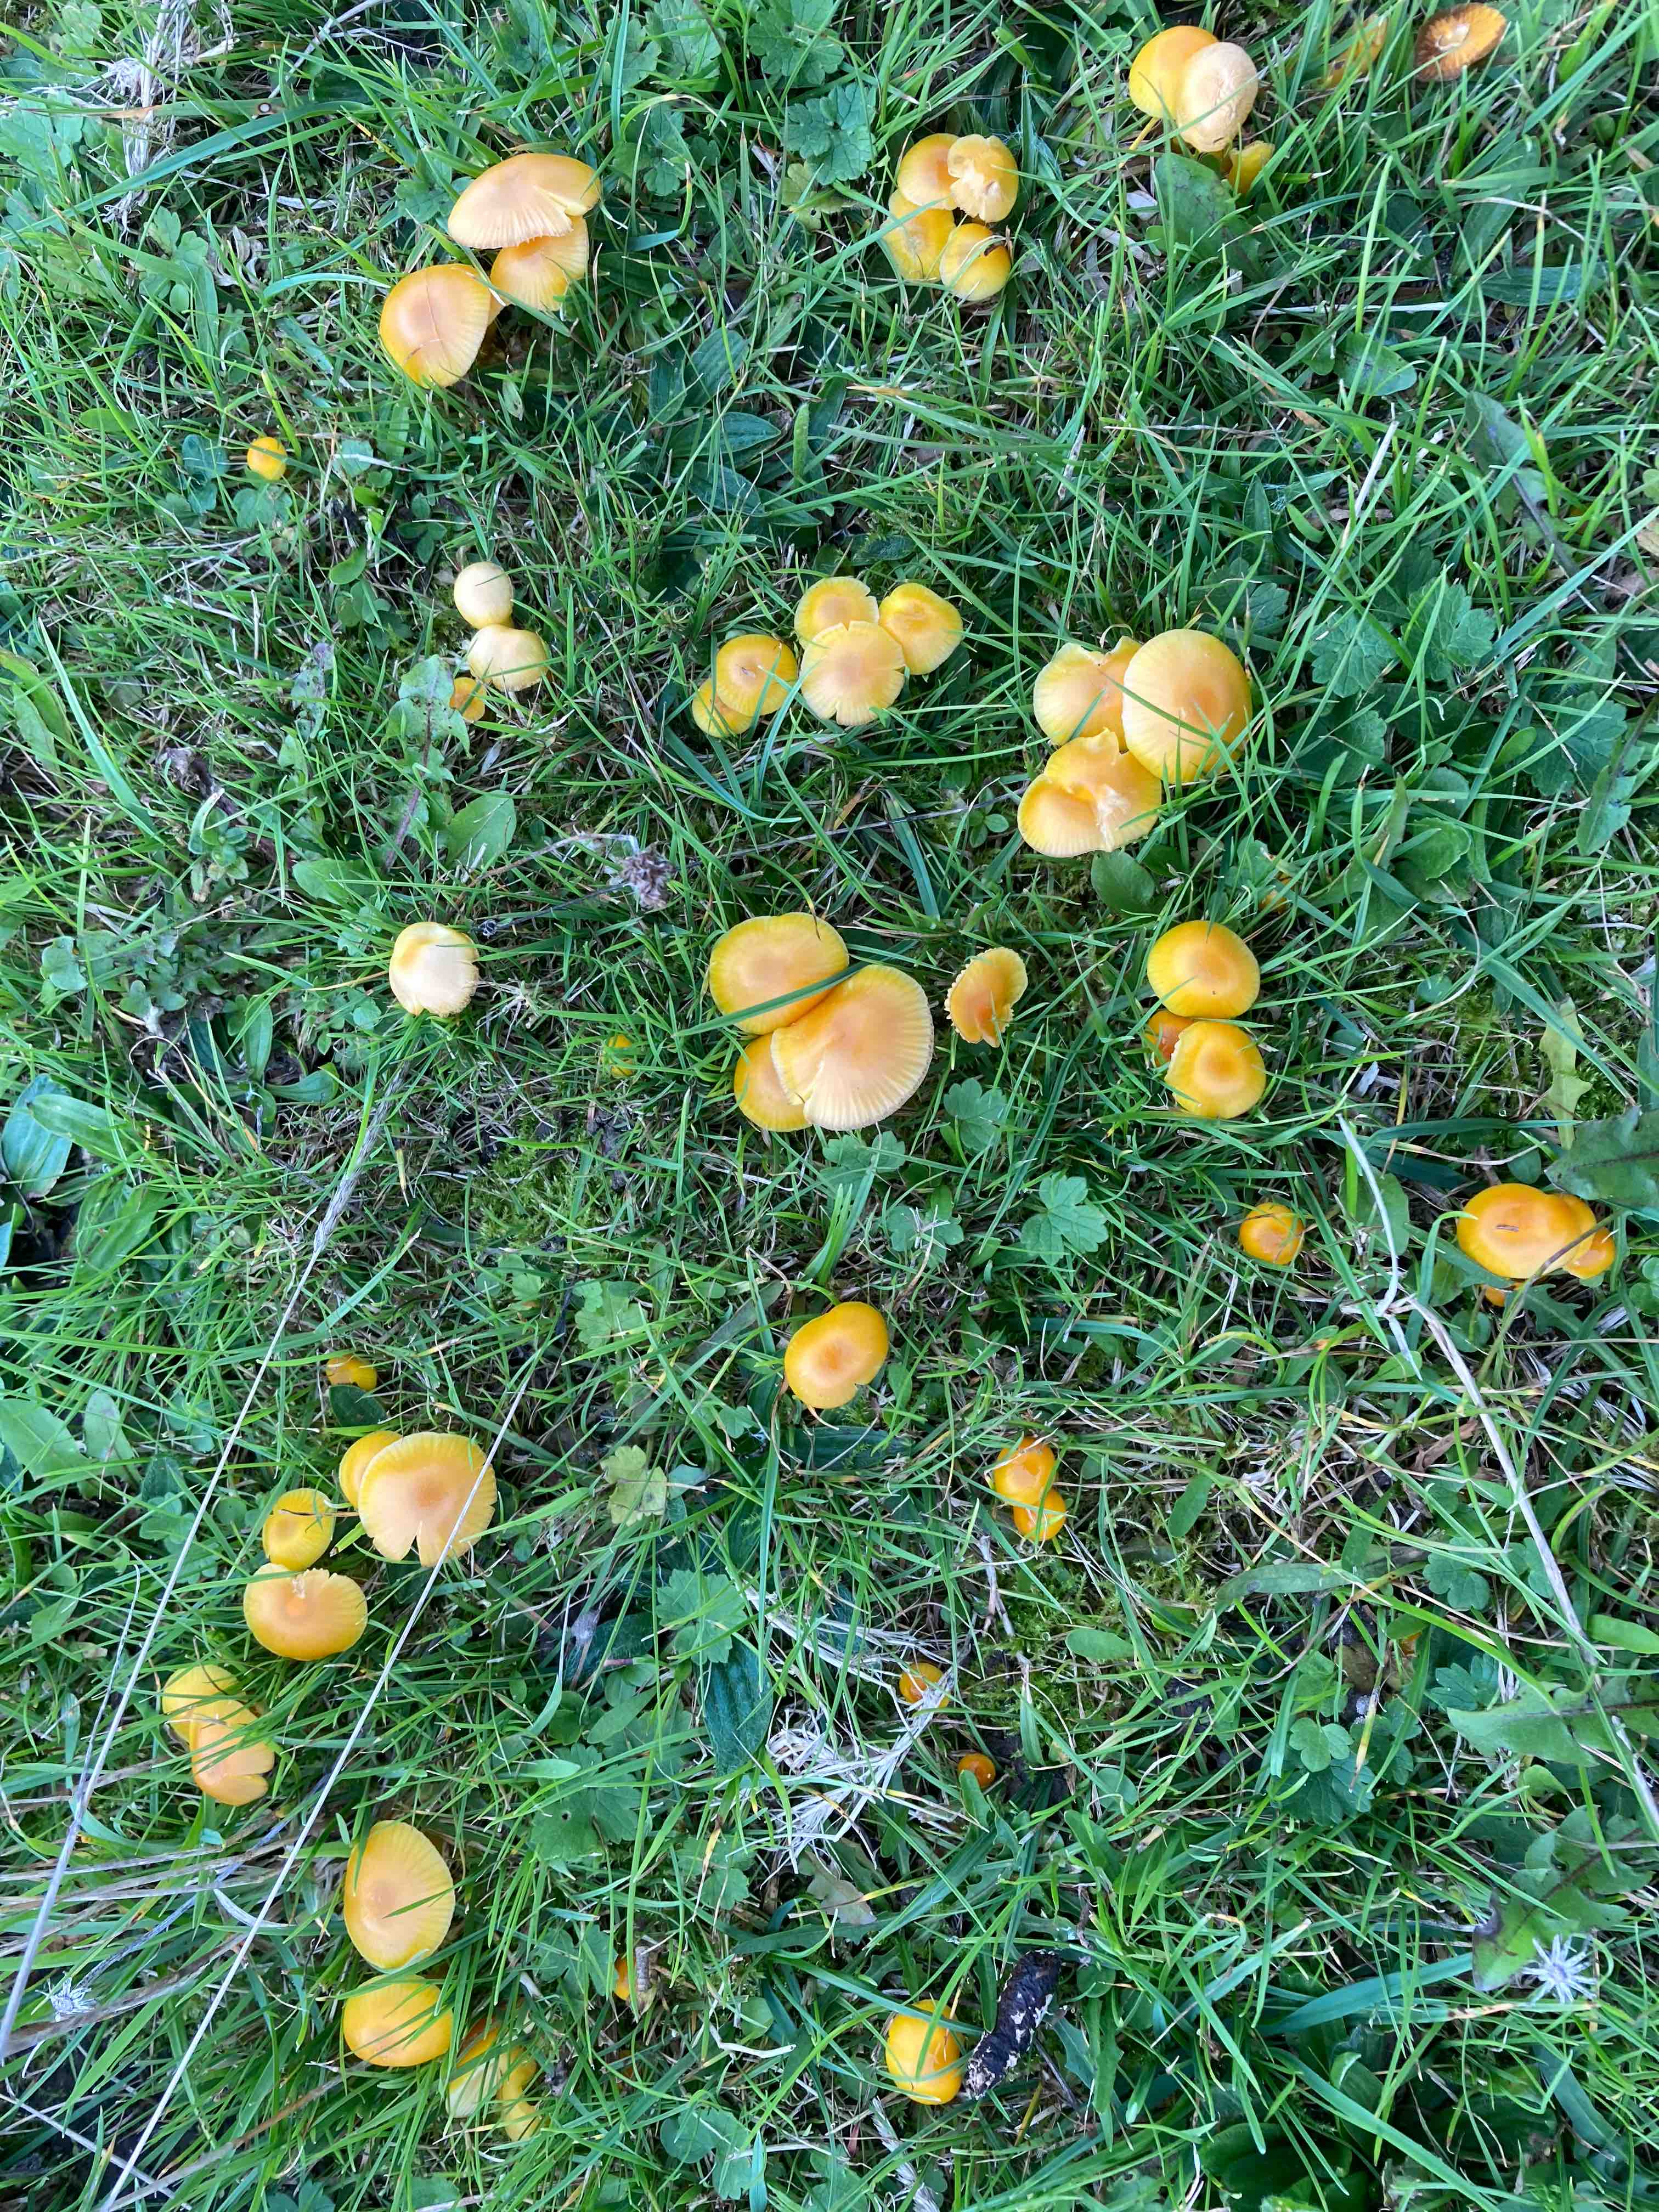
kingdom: Fungi
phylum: Basidiomycota
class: Agaricomycetes
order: Agaricales
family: Hygrophoraceae
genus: Hygrocybe
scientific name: Hygrocybe ceracea
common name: voksgul vokshat
